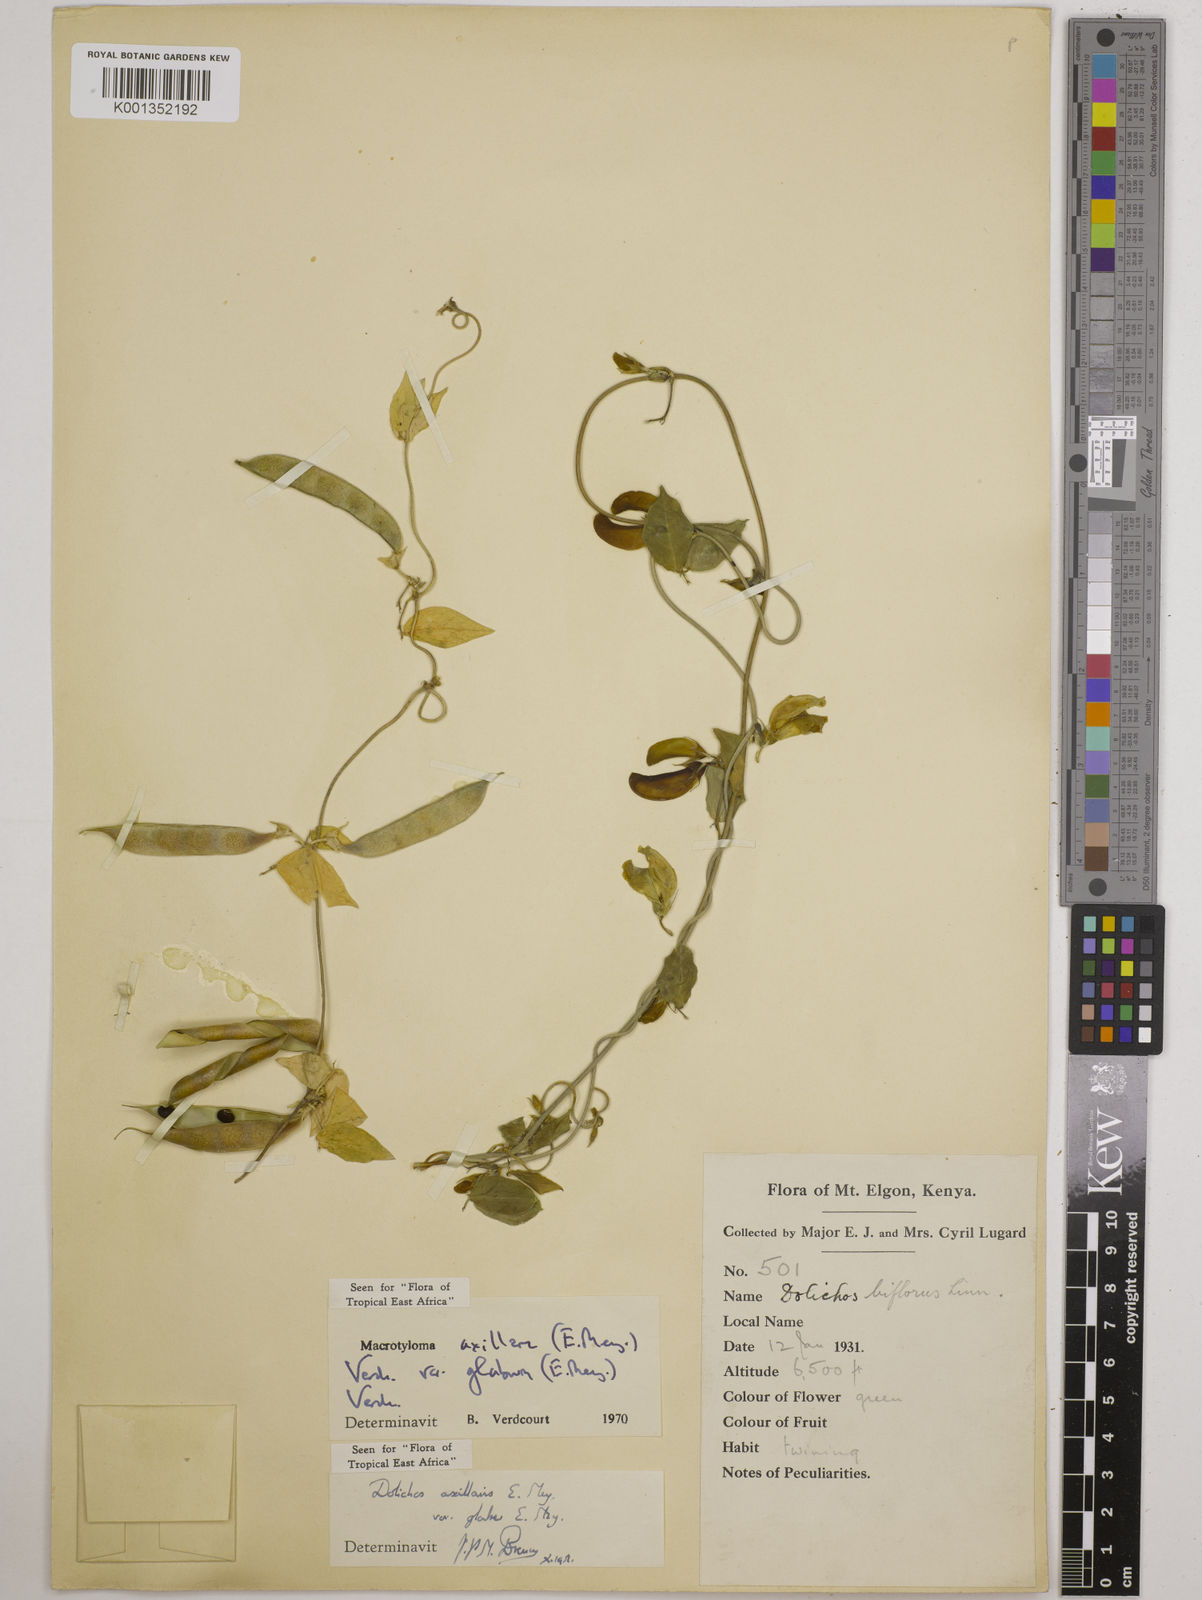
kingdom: Plantae
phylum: Tracheophyta
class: Magnoliopsida
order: Fabales
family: Fabaceae
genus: Macrotyloma
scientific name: Macrotyloma
